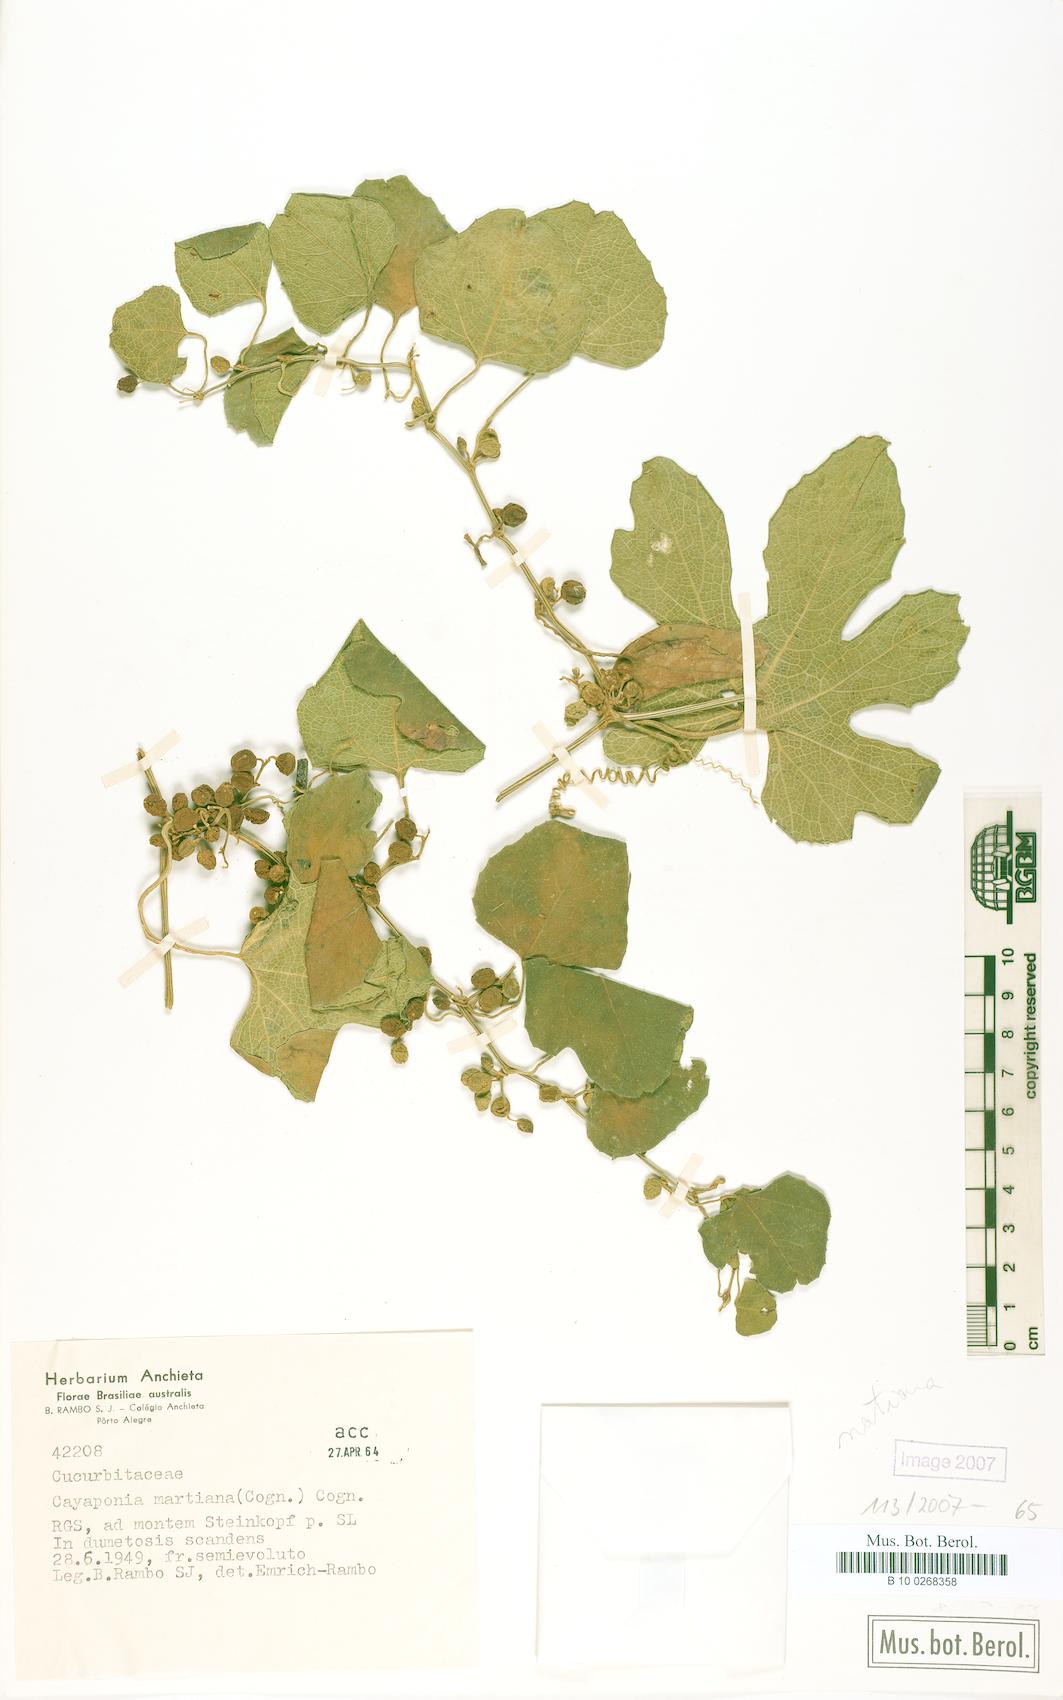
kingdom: Plantae
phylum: Tracheophyta
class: Magnoliopsida
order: Cucurbitales
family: Cucurbitaceae
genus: Cayaponia
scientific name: Cayaponia martiana
